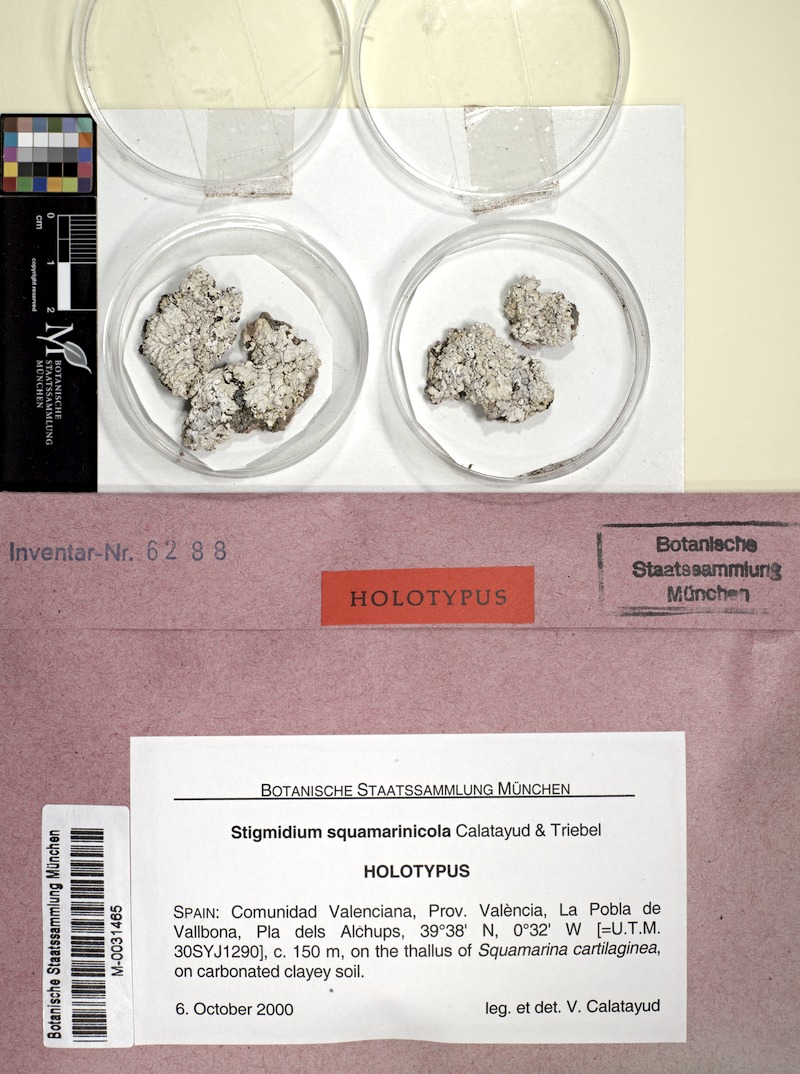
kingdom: Fungi
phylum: Ascomycota
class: Dothideomycetes
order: Mycosphaerellales
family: Mycosphaerellaceae
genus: Stigmidium
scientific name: Stigmidium squamarinicola
